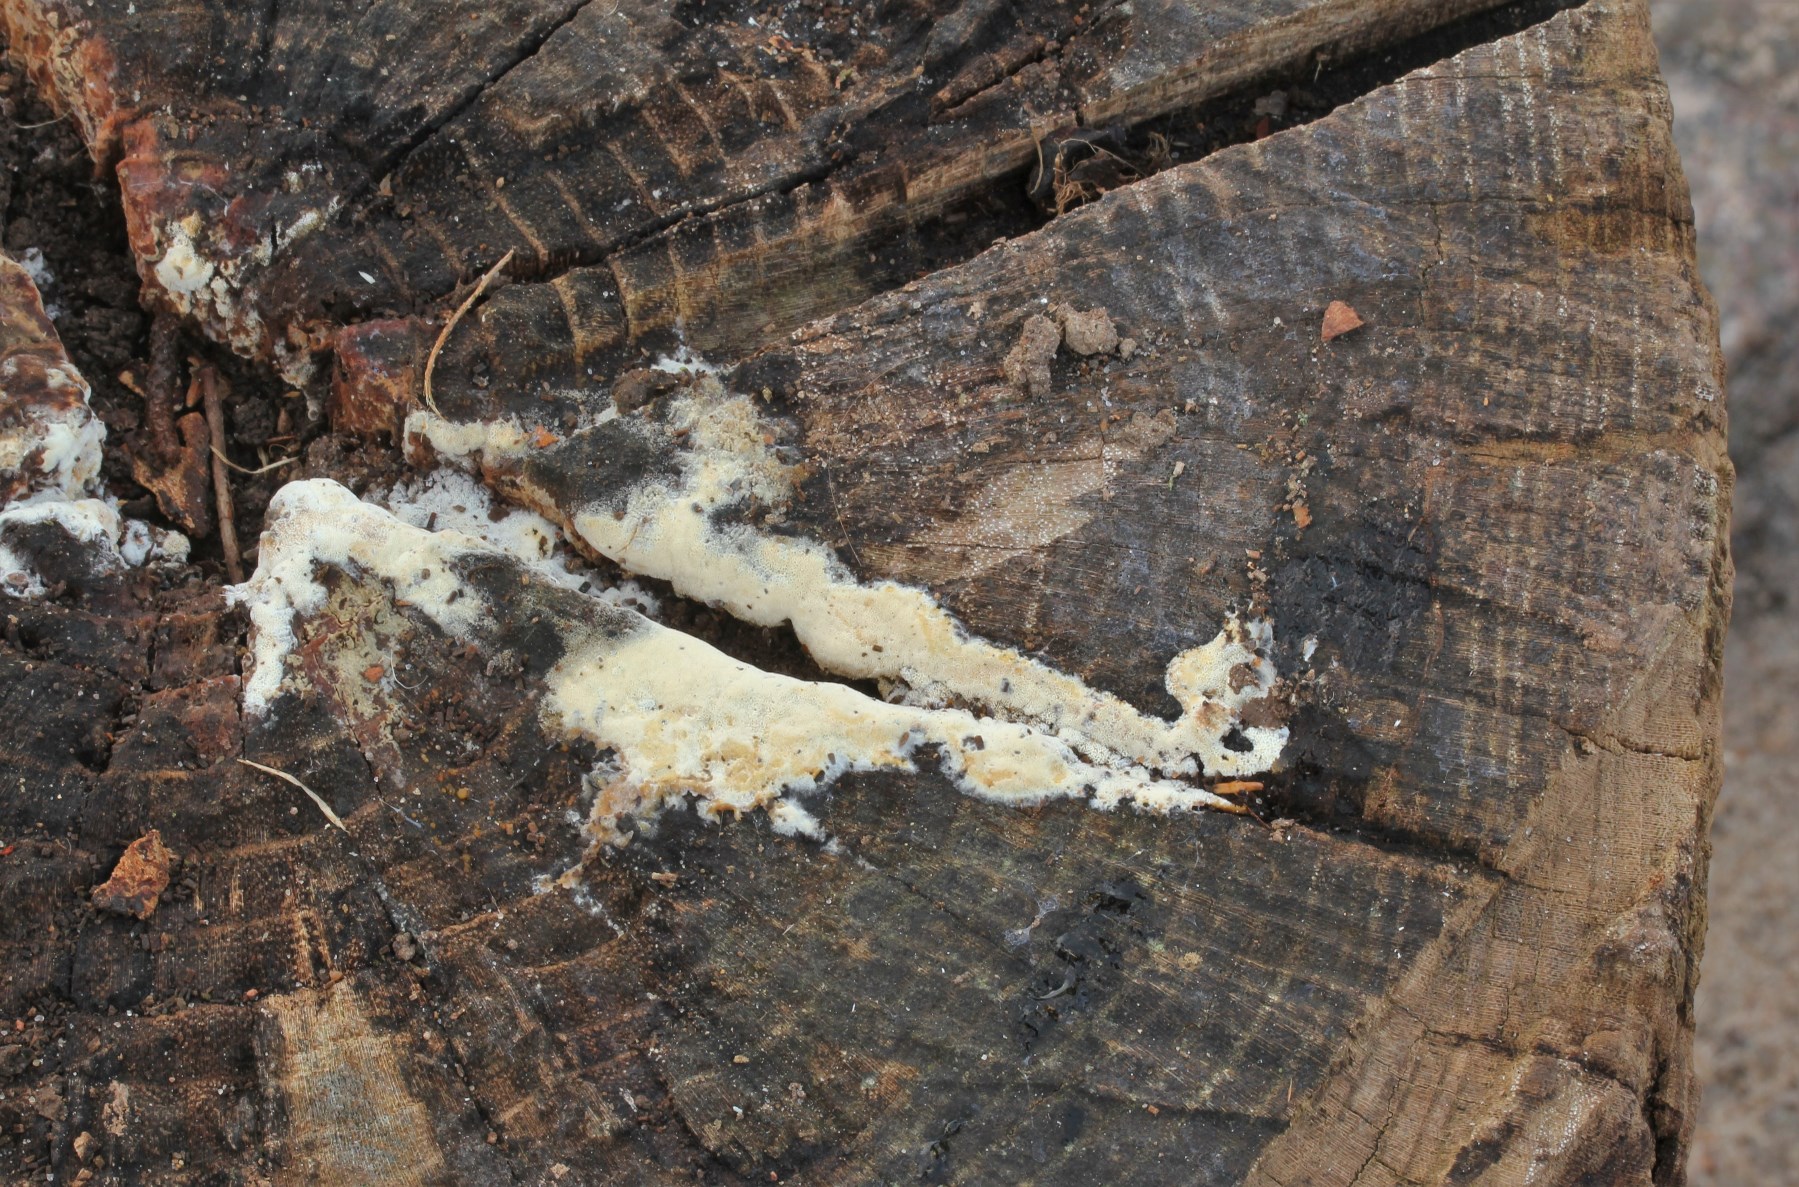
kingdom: Fungi
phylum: Basidiomycota
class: Agaricomycetes
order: Hymenochaetales
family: Schizoporaceae
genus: Xylodon
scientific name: Xylodon subtropicus
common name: labyrint-tandsvamp
